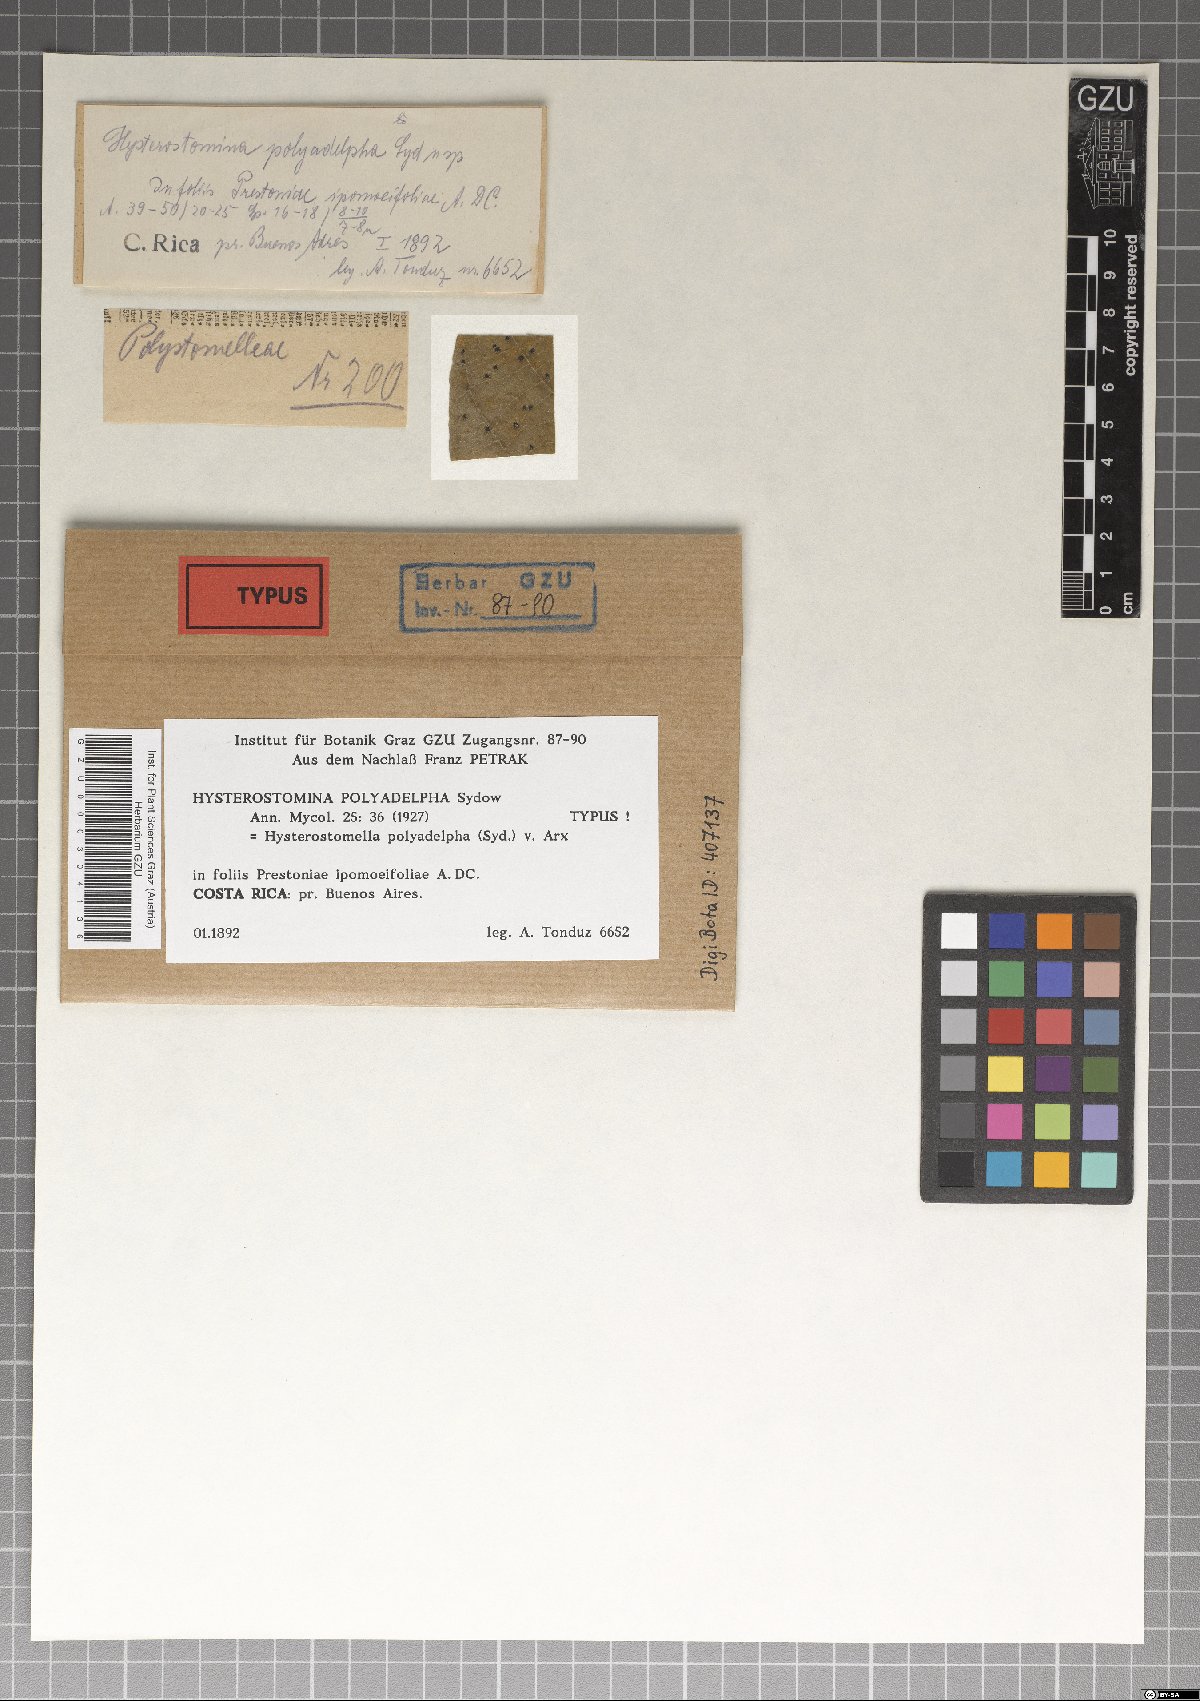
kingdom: Fungi
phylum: Ascomycota
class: Dothideomycetes
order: Asterinales
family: Parmulariaceae
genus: Hysterostomella
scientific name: Hysterostomella polyadelpha
